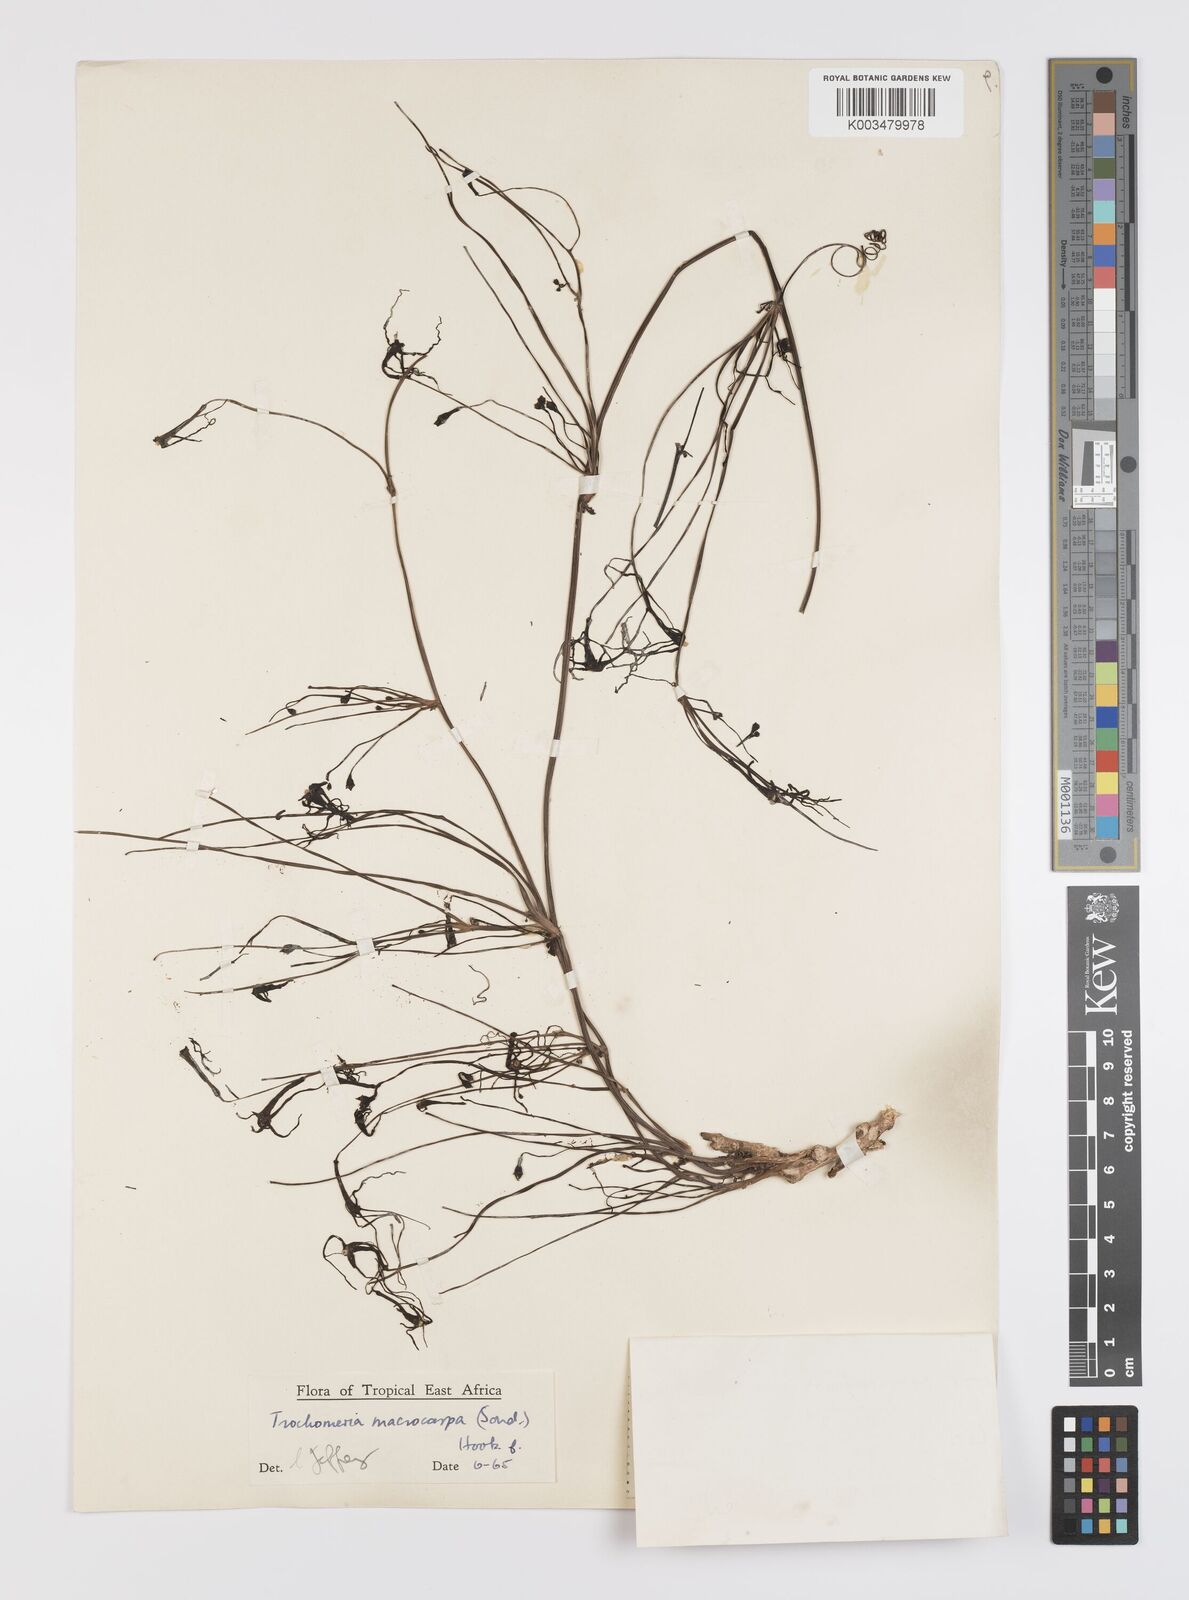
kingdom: Plantae
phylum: Tracheophyta
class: Magnoliopsida
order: Cucurbitales
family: Cucurbitaceae
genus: Trochomeria
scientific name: Trochomeria macrocarpa
